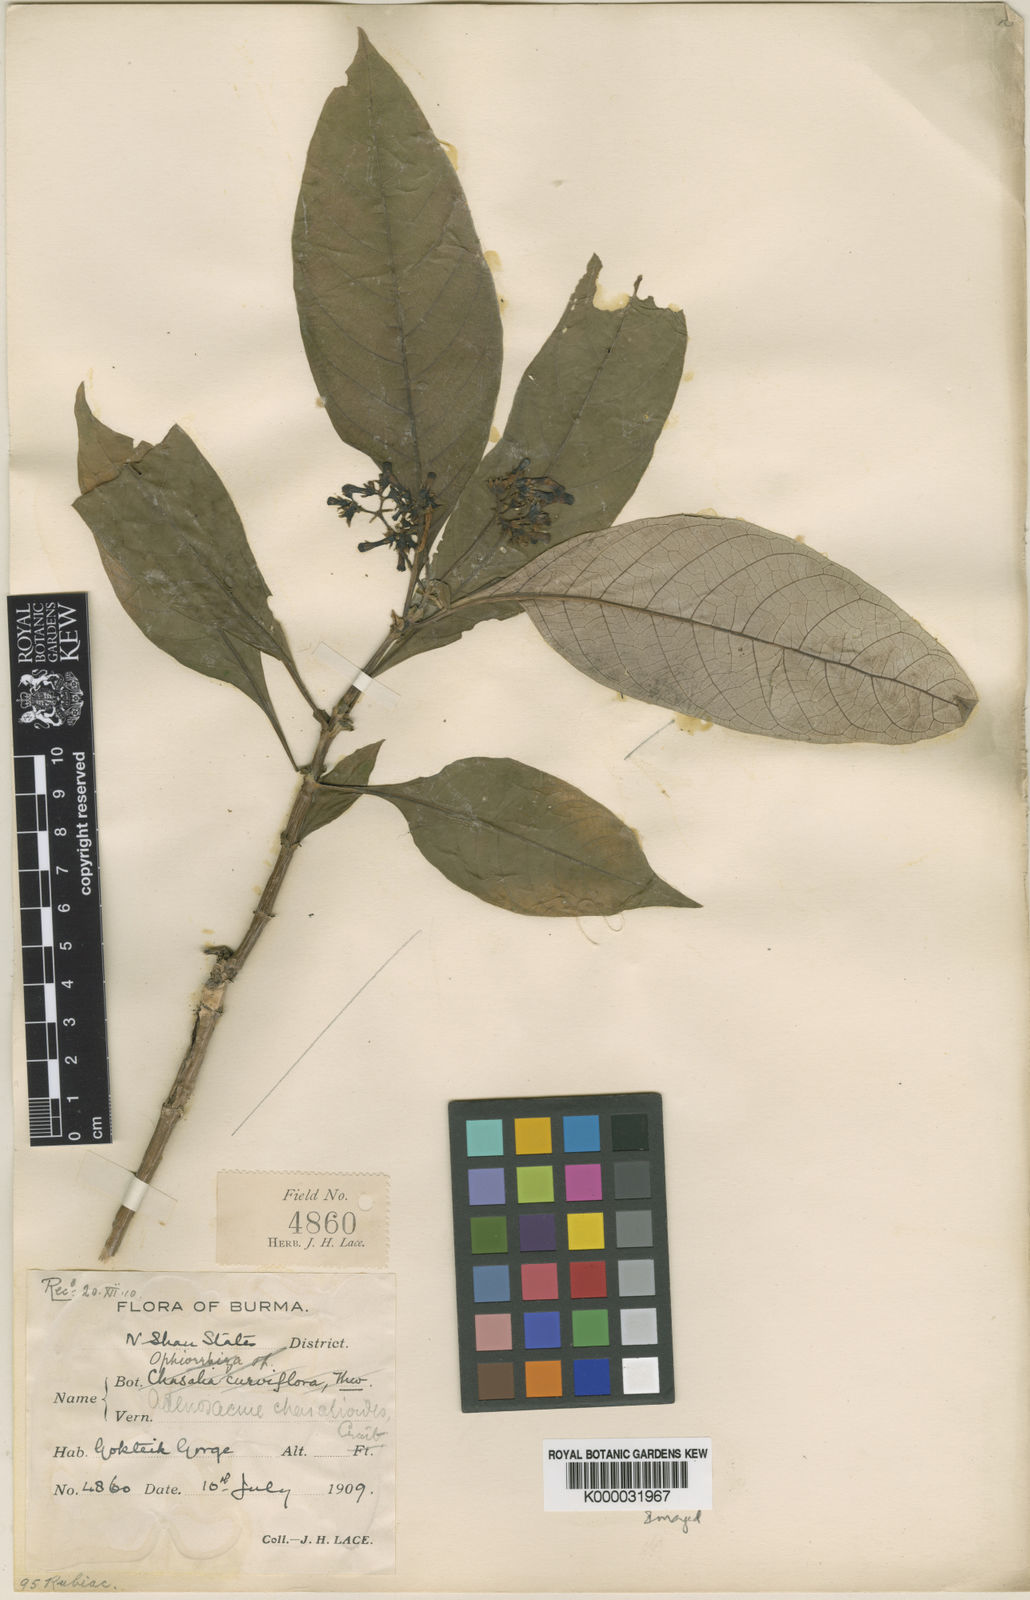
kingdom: Plantae
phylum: Tracheophyta
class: Magnoliopsida
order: Gentianales
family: Rubiaceae
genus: Mycetia
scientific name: Mycetia chasalioides
